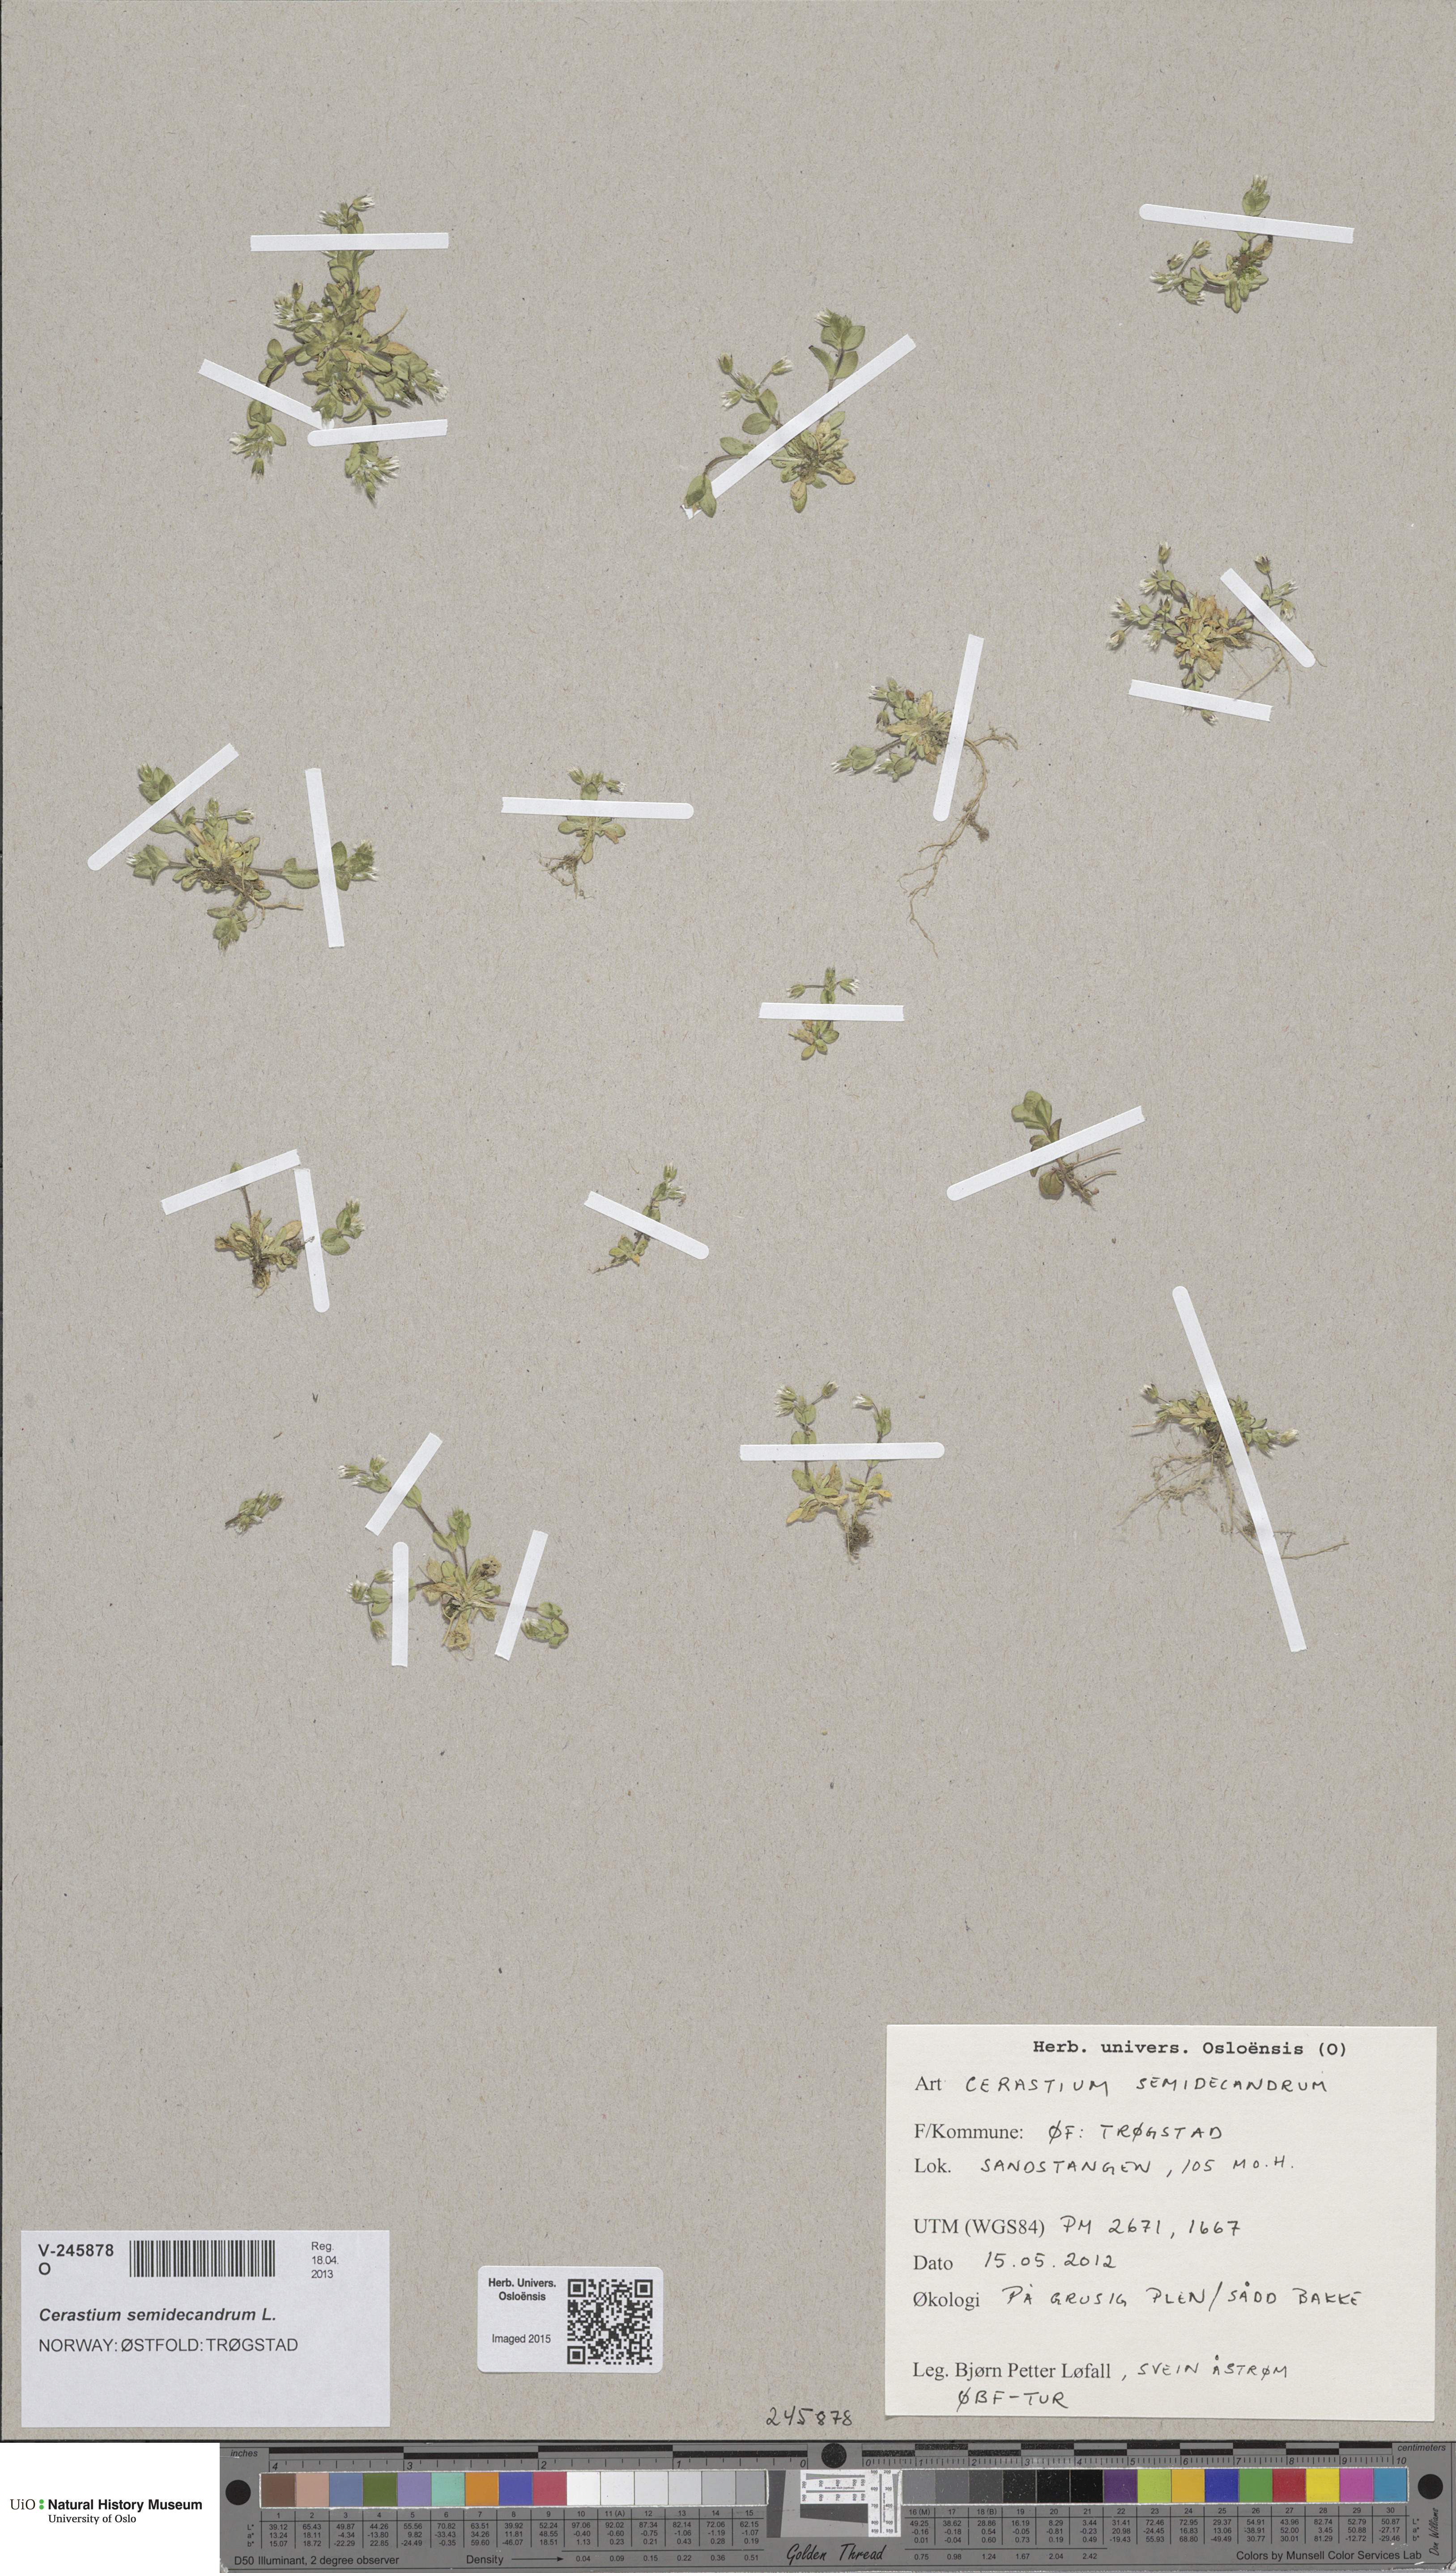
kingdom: Plantae
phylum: Tracheophyta
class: Magnoliopsida
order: Caryophyllales
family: Caryophyllaceae
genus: Cerastium
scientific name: Cerastium semidecandrum
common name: Little mouse-ear
